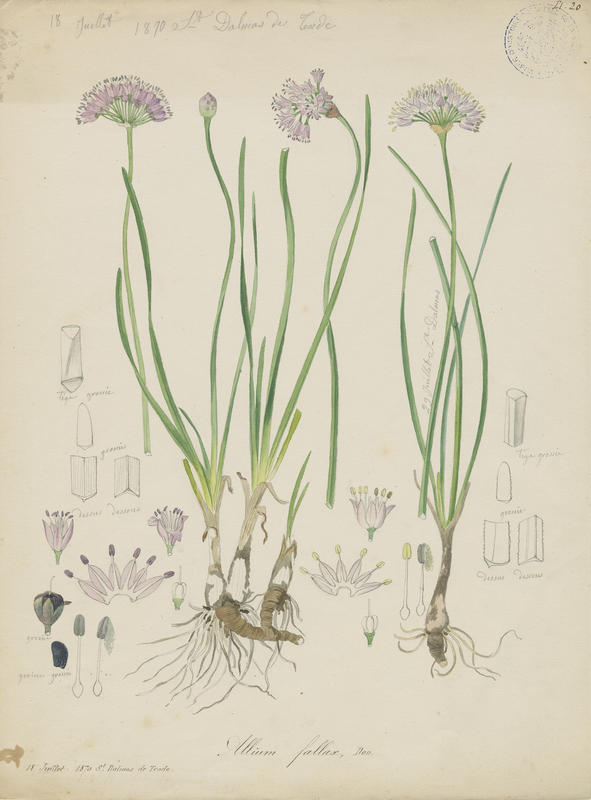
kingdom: Plantae
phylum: Tracheophyta
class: Liliopsida
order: Asparagales
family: Amaryllidaceae
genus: Allium
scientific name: Allium lusitanicum
